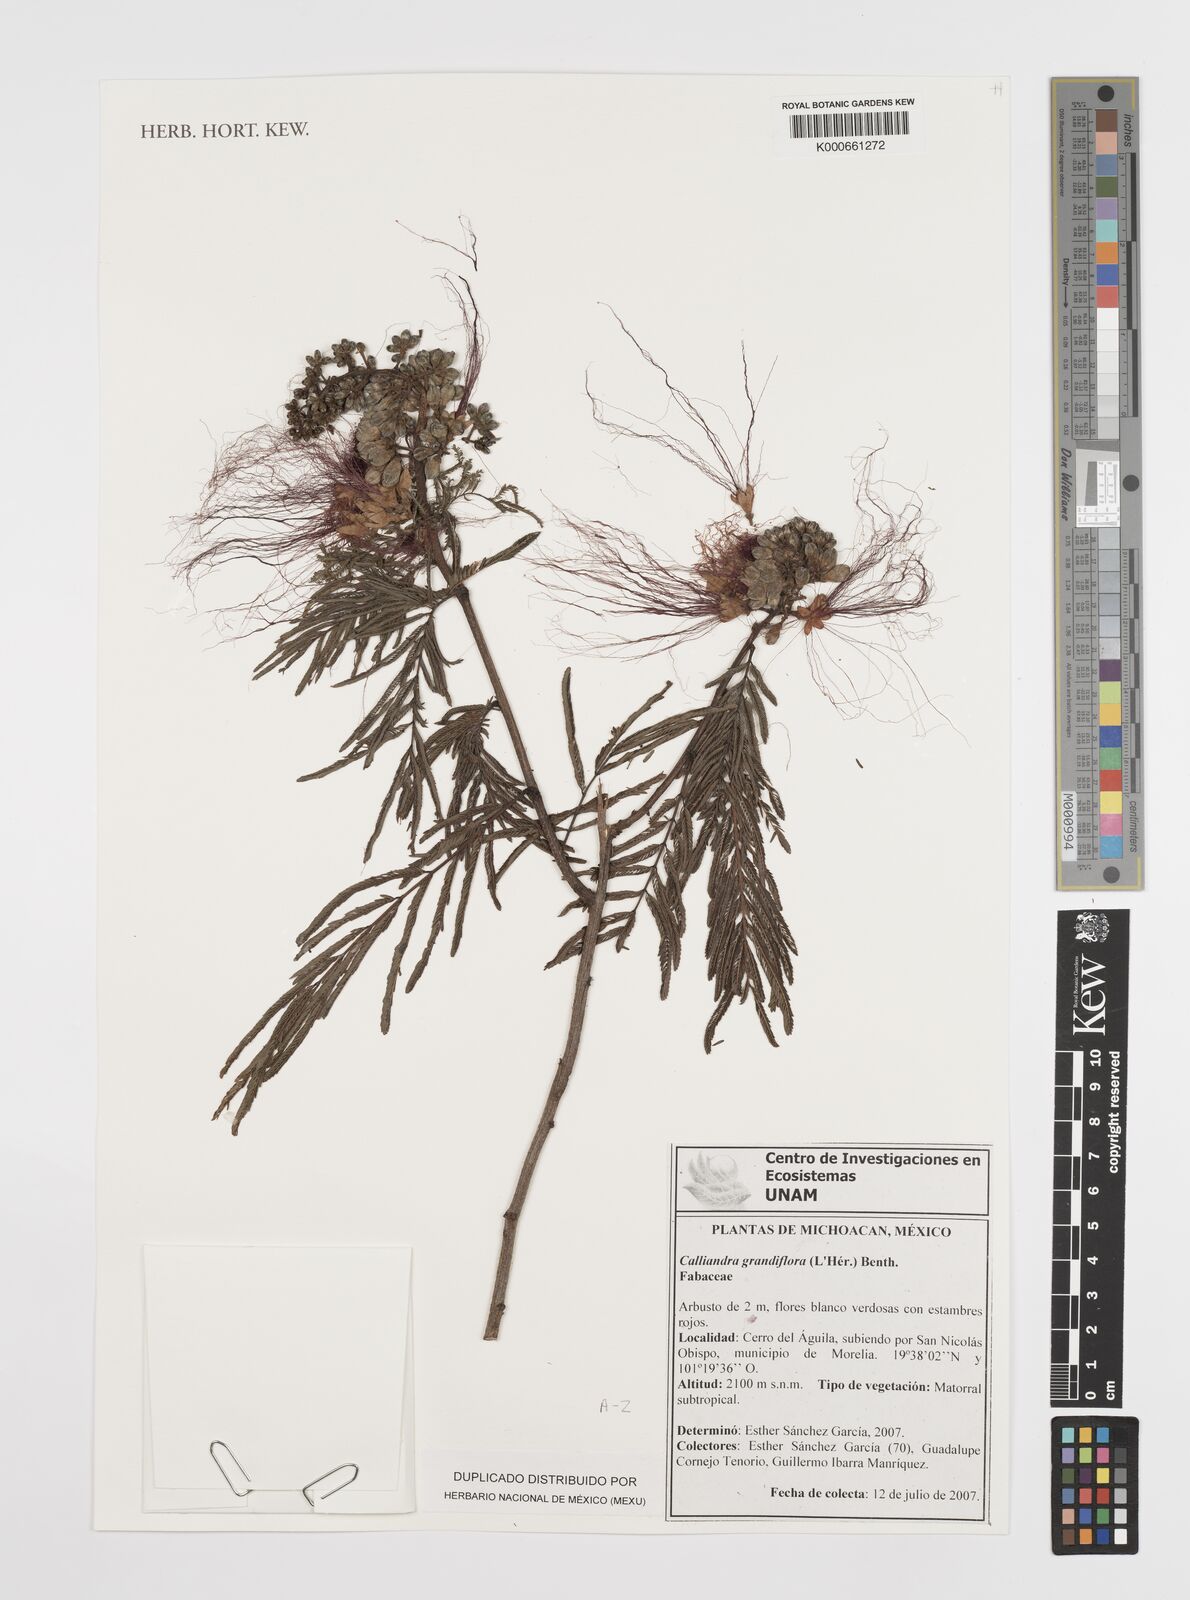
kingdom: Plantae
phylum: Tracheophyta
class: Magnoliopsida
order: Fabales
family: Fabaceae
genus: Calliandra
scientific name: Calliandra
